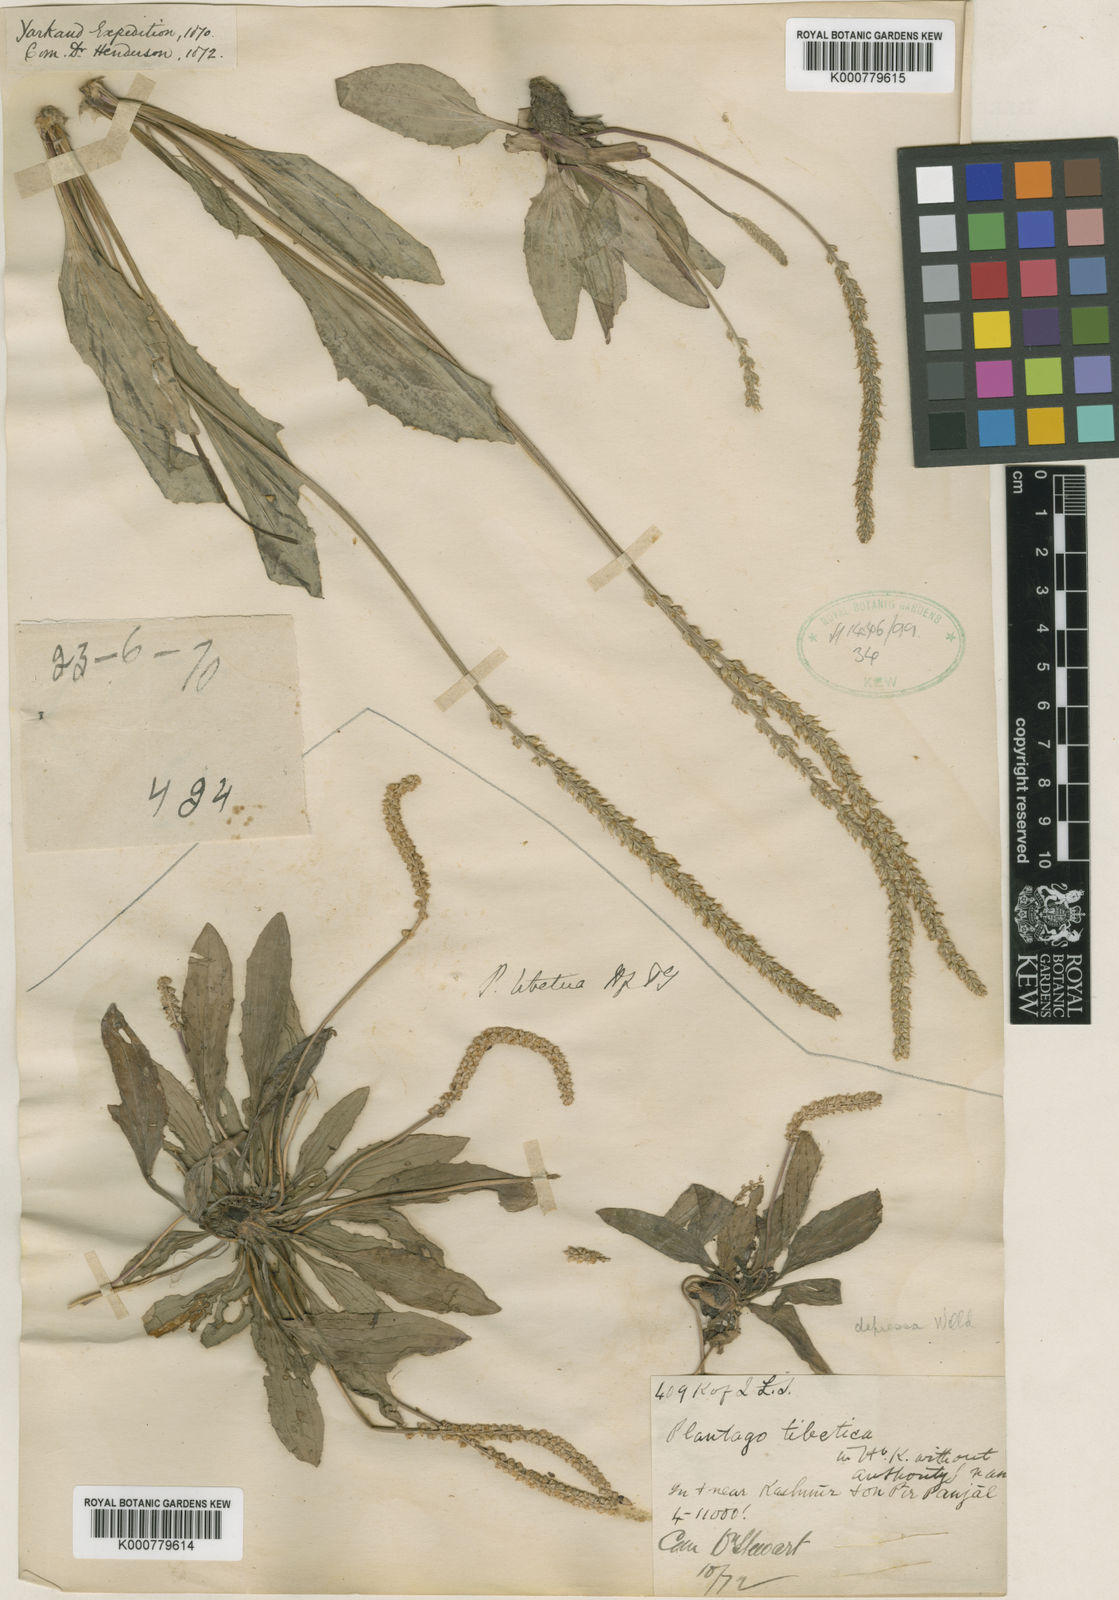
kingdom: Plantae
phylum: Tracheophyta
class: Magnoliopsida
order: Lamiales
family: Plantaginaceae
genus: Plantago
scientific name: Plantago depressa
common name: Depressed plantain
